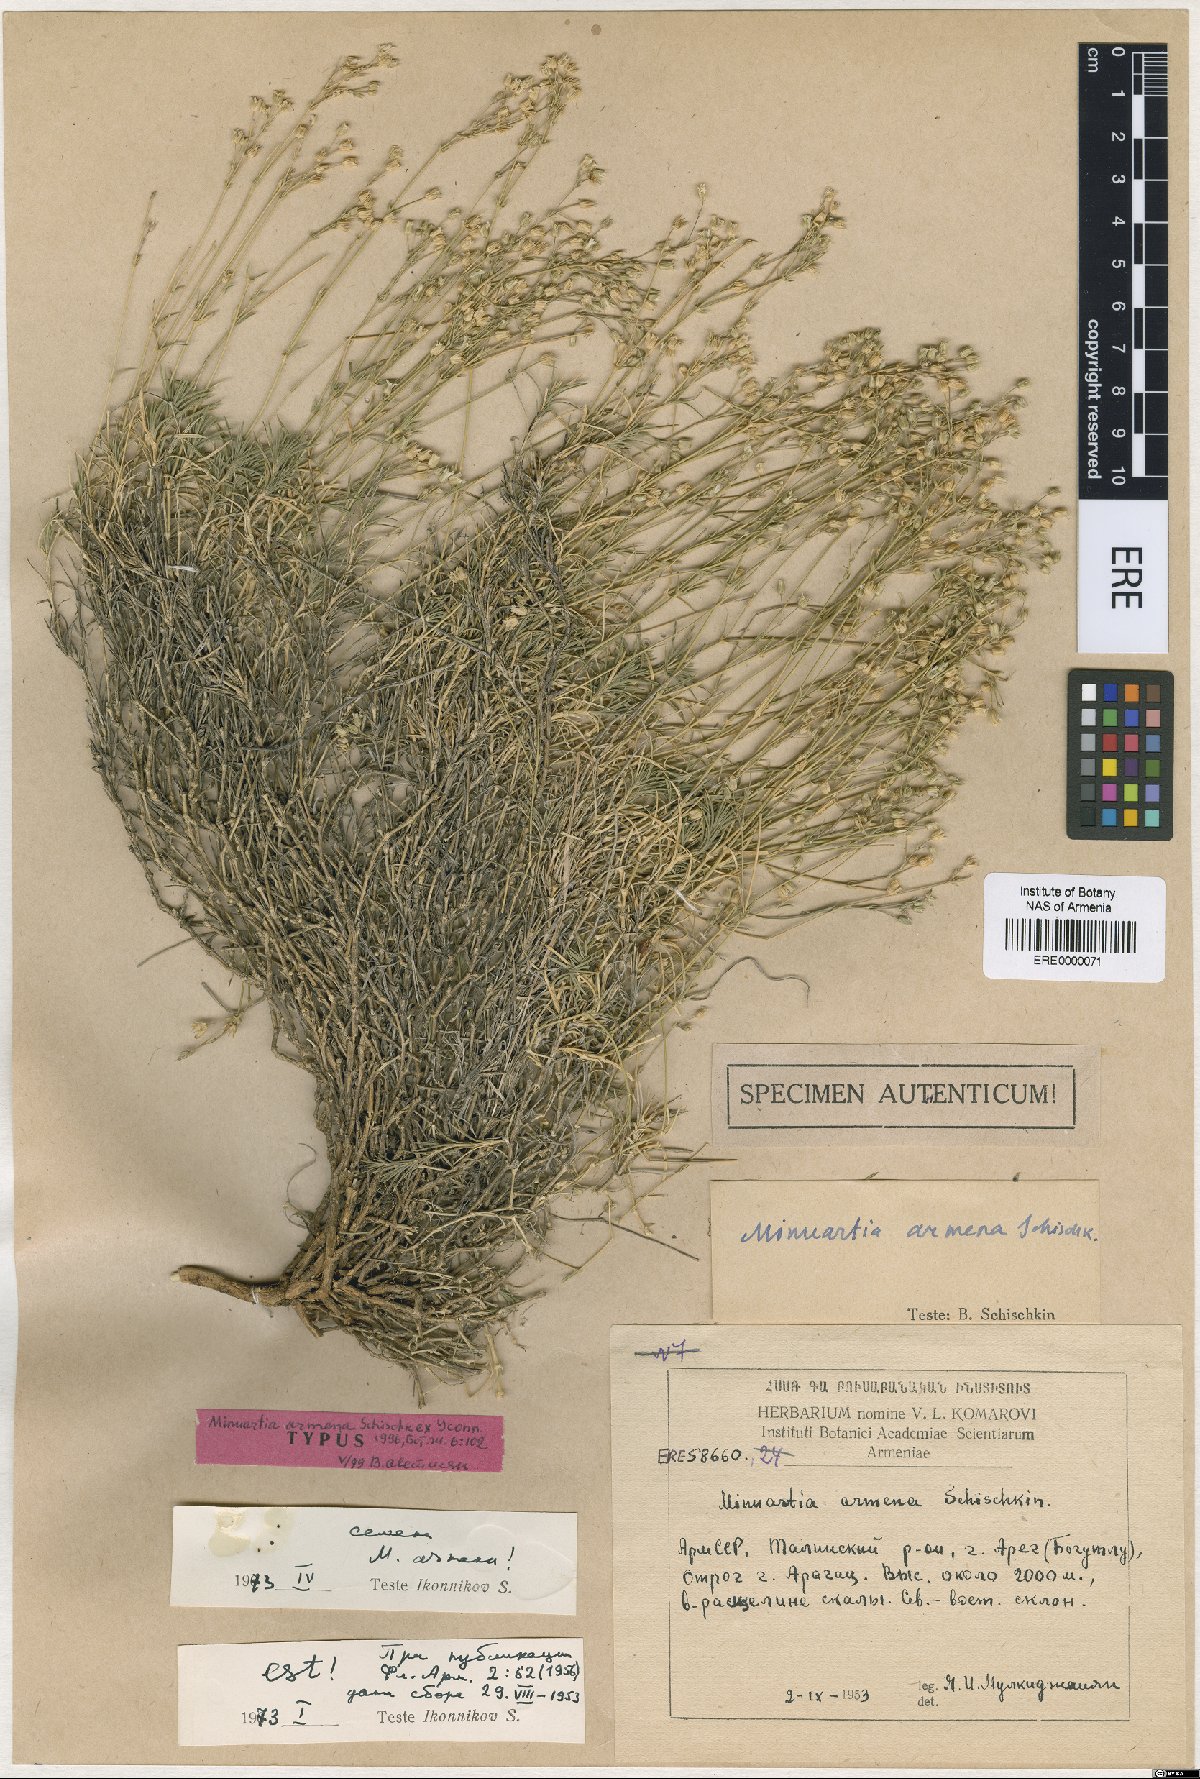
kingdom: Plantae
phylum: Tracheophyta
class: Magnoliopsida
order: Caryophyllales
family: Caryophyllaceae
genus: Sabulina
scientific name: Sabulina armena
